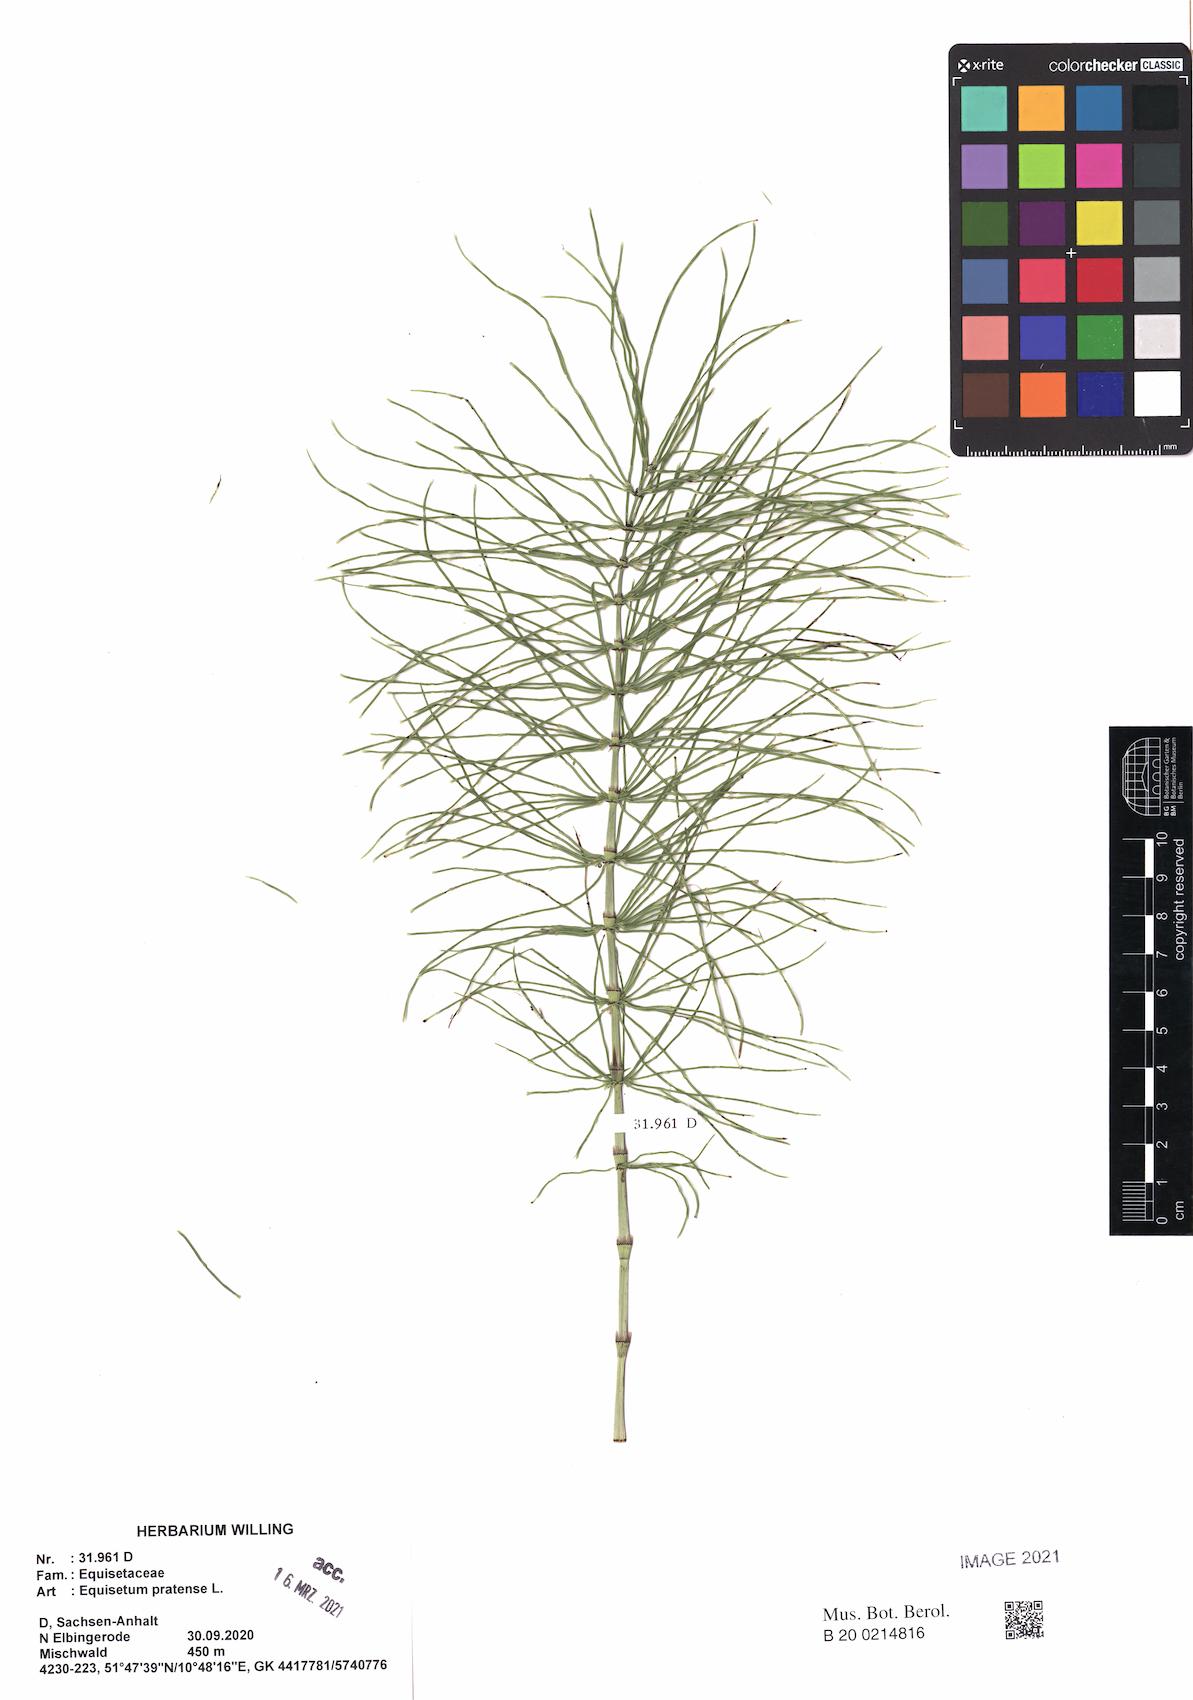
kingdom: Plantae
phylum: Tracheophyta
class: Polypodiopsida
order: Equisetales
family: Equisetaceae
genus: Equisetum
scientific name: Equisetum pratense
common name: Meadow horsetail
